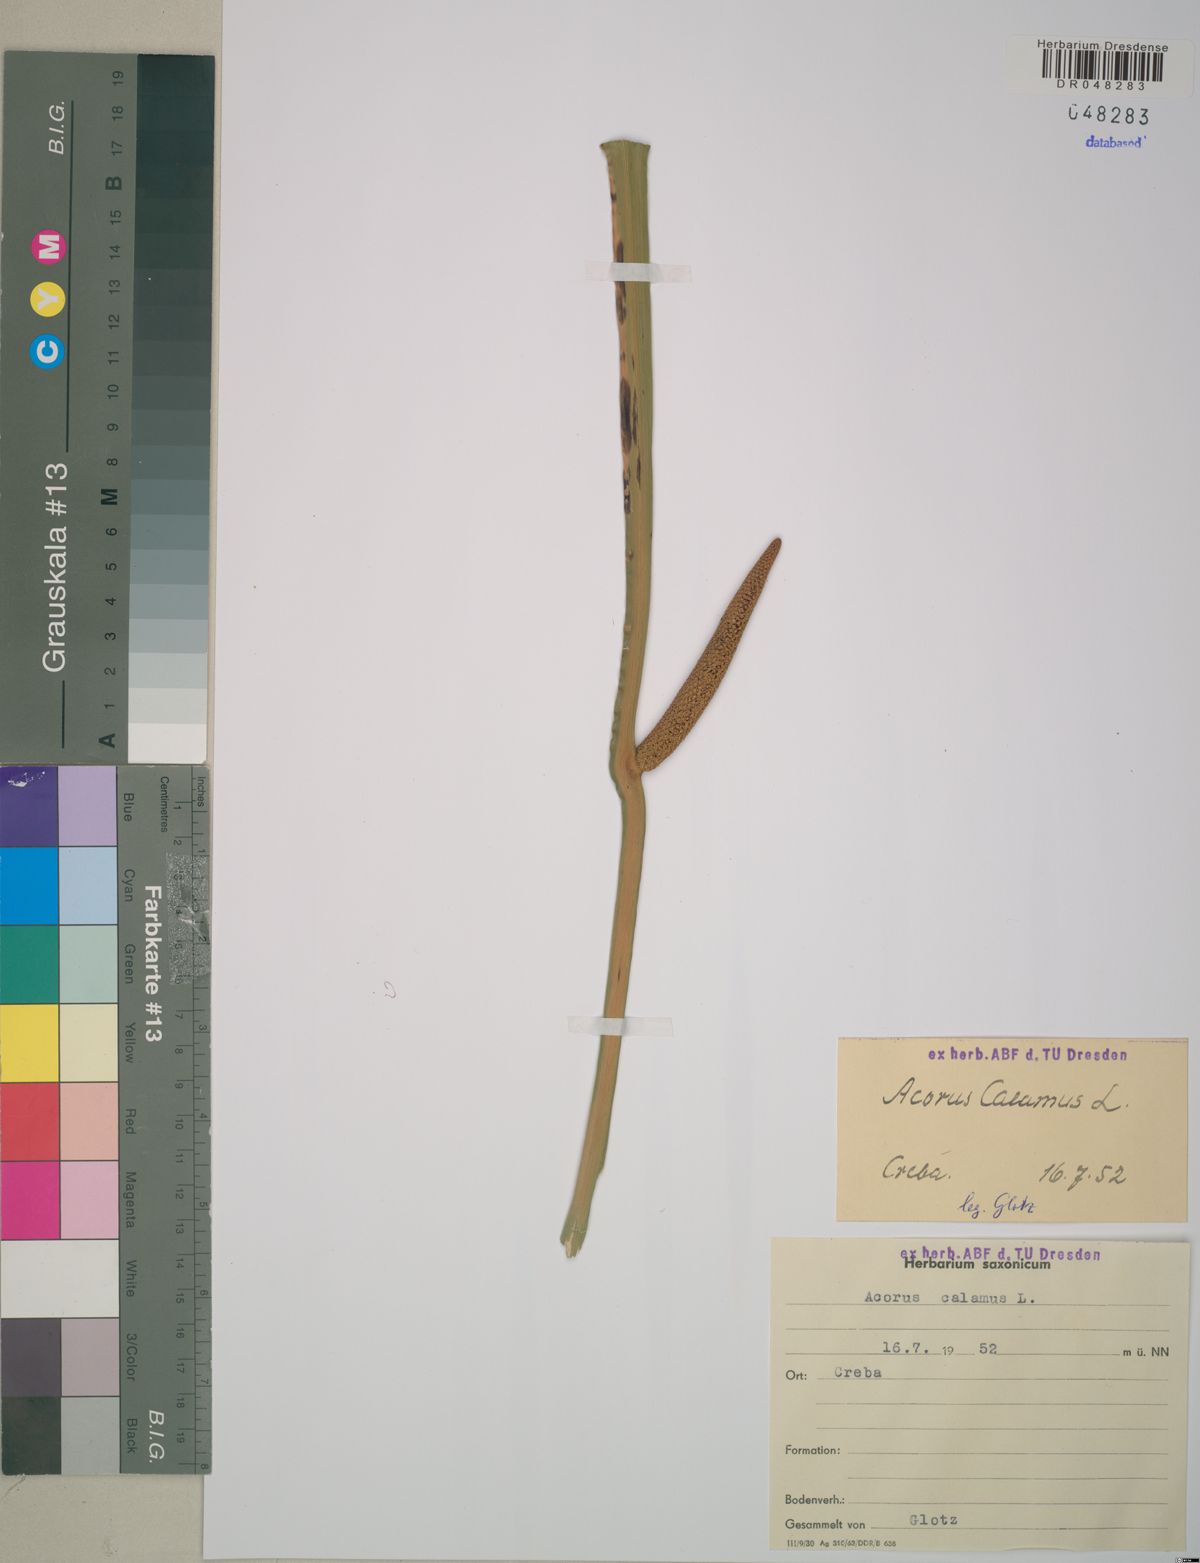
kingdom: Plantae
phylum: Tracheophyta
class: Liliopsida
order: Acorales
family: Acoraceae
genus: Acorus
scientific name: Acorus calamus
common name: Sweet-flag
